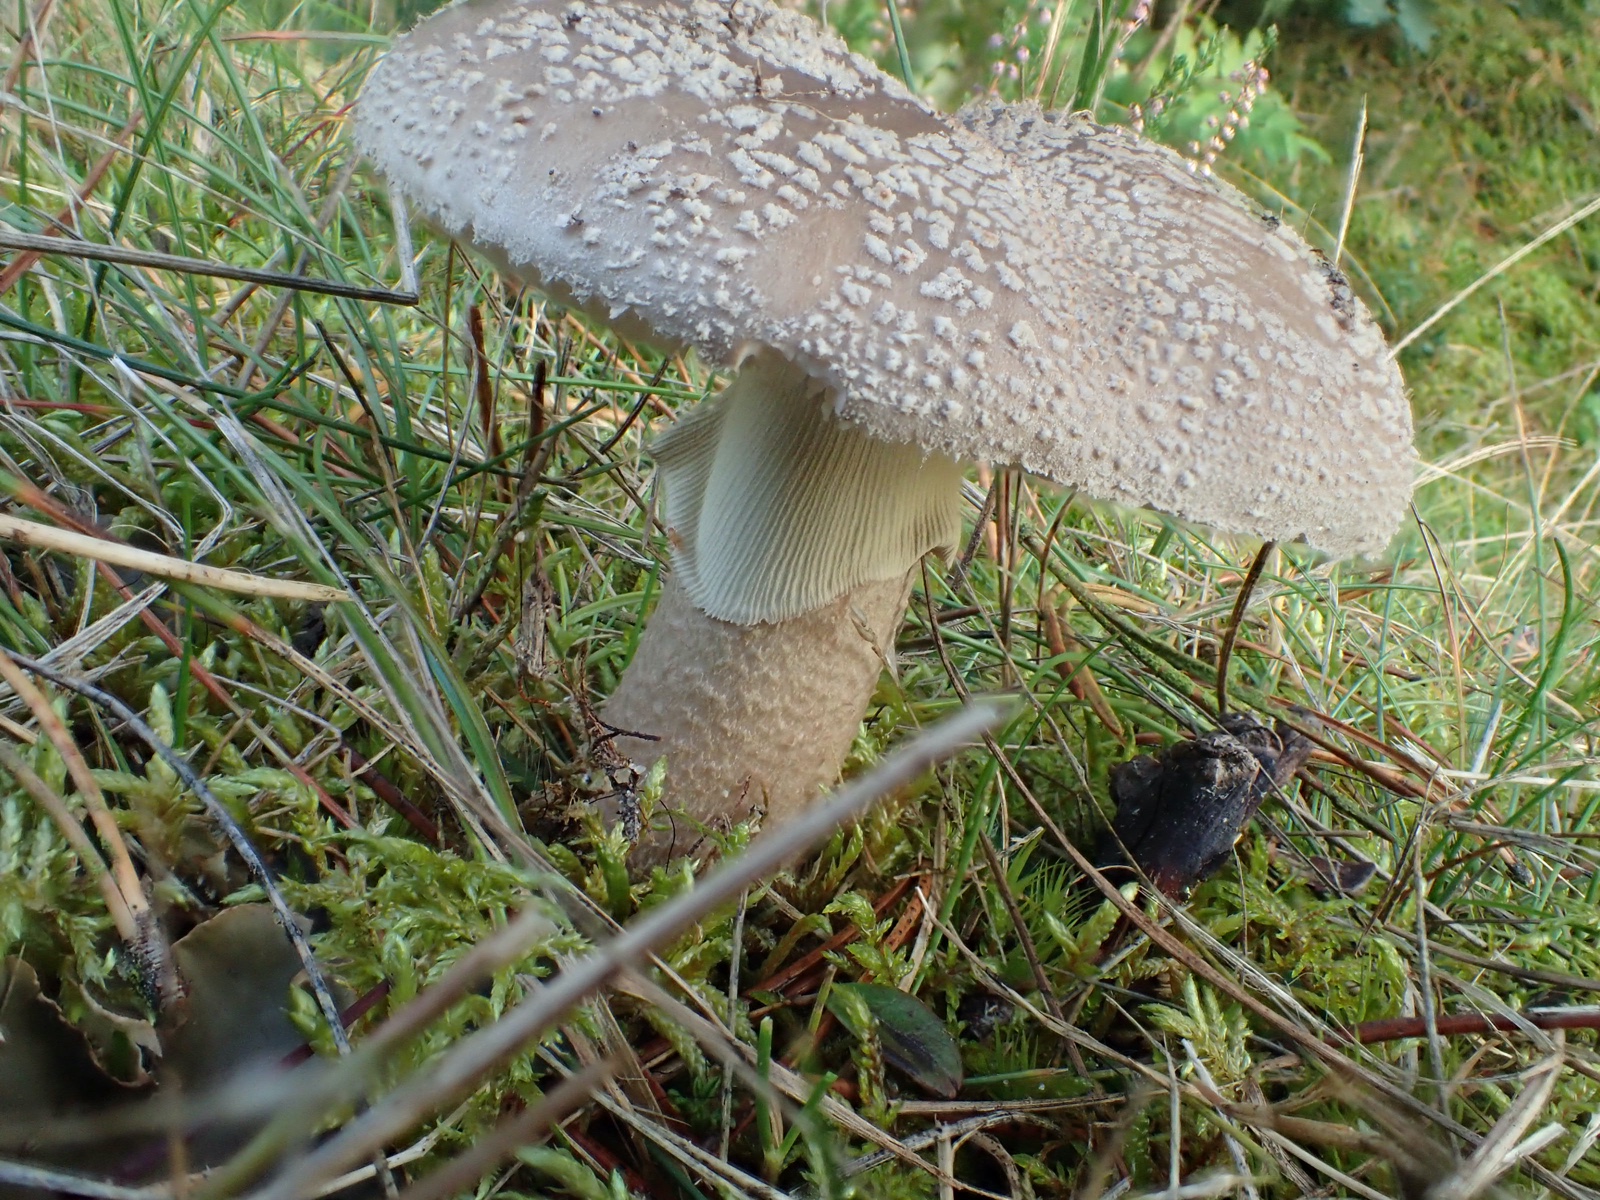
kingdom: Fungi
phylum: Basidiomycota
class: Agaricomycetes
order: Agaricales
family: Amanitaceae
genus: Amanita
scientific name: Amanita
